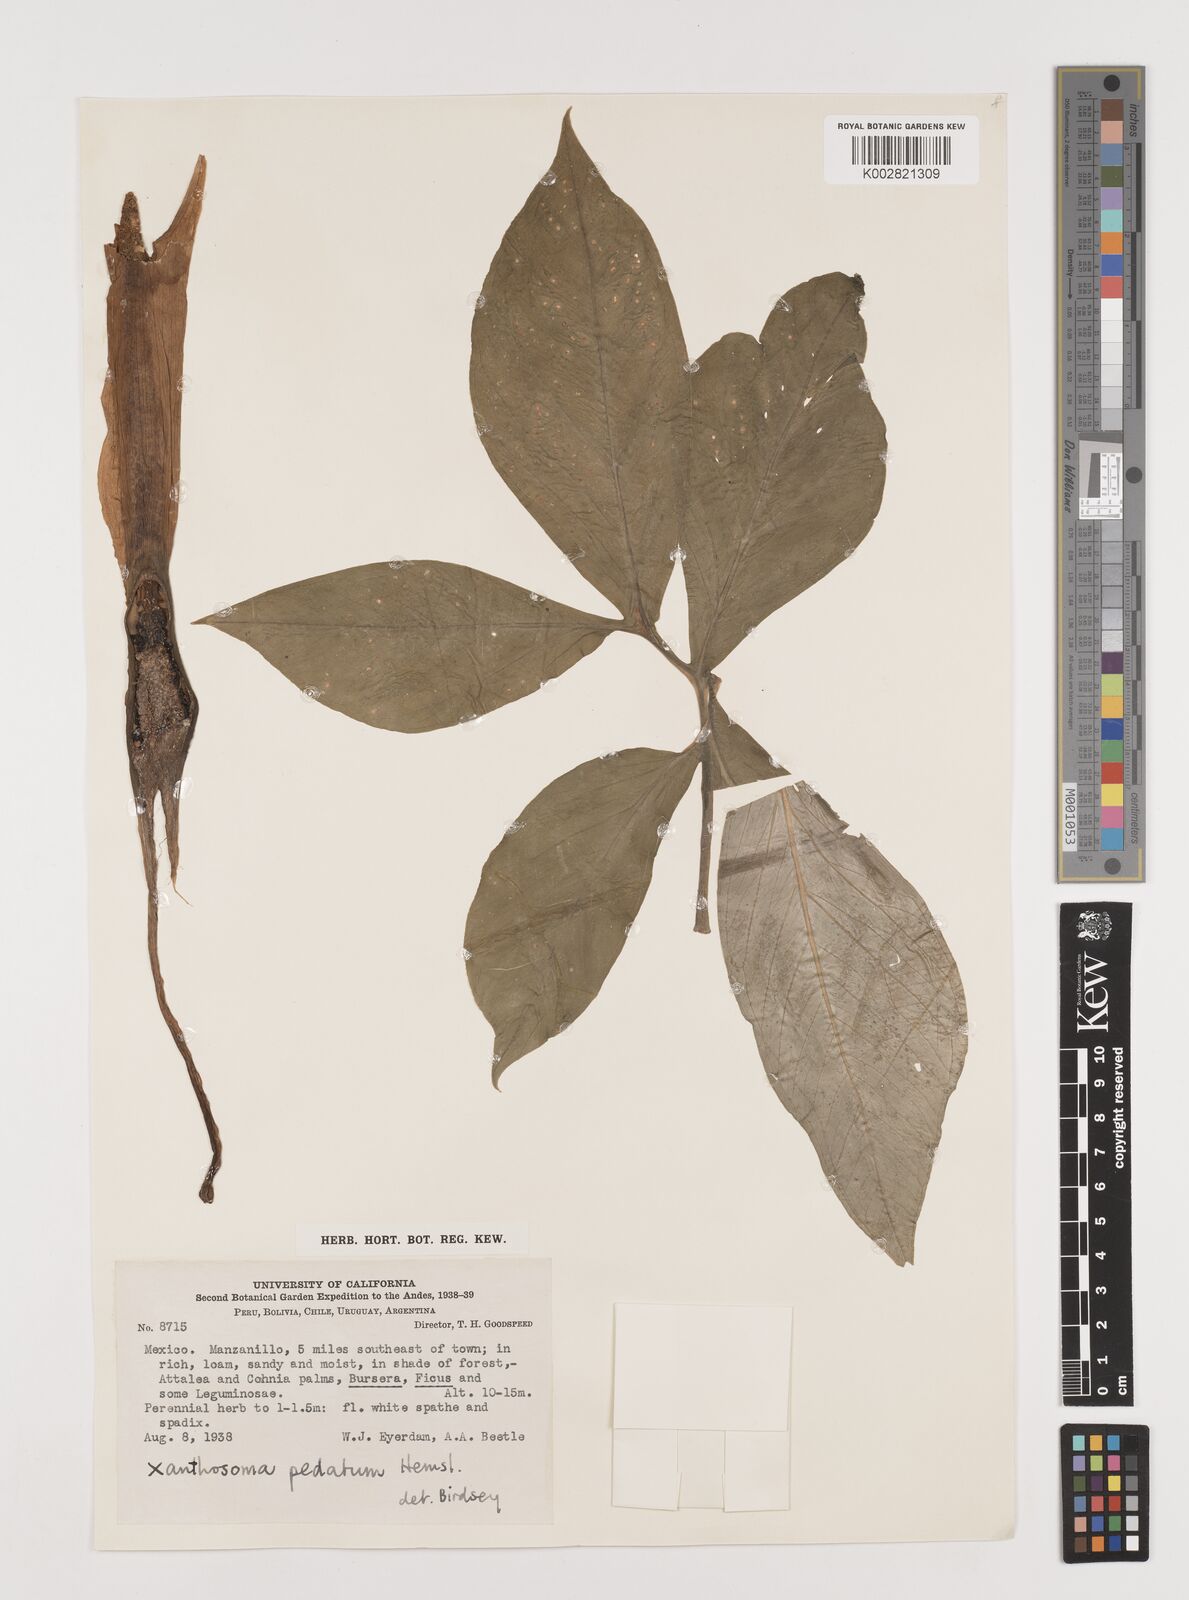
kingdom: Plantae
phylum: Tracheophyta
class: Liliopsida
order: Alismatales
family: Araceae
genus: Xanthosoma
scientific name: Xanthosoma wendlandii
